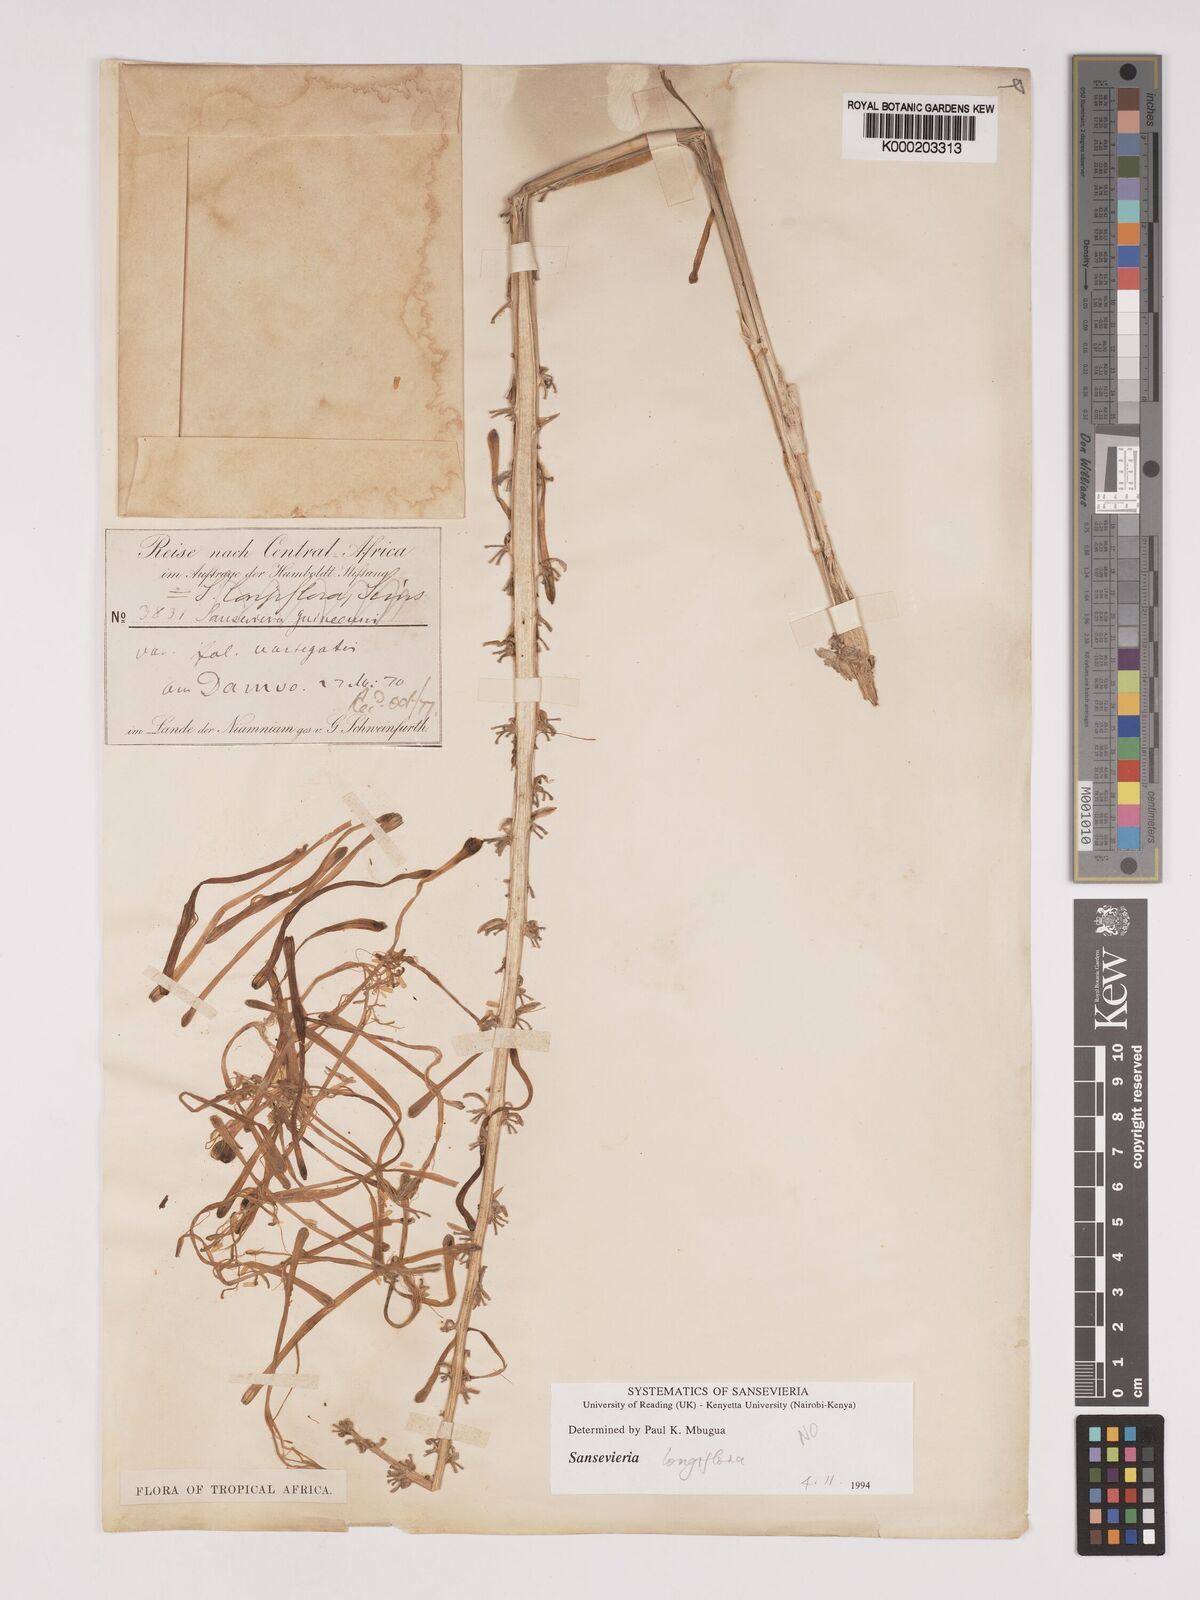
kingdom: Plantae
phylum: Tracheophyta
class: Liliopsida
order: Asparagales
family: Asparagaceae
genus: Dracaena
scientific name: Dracaena
